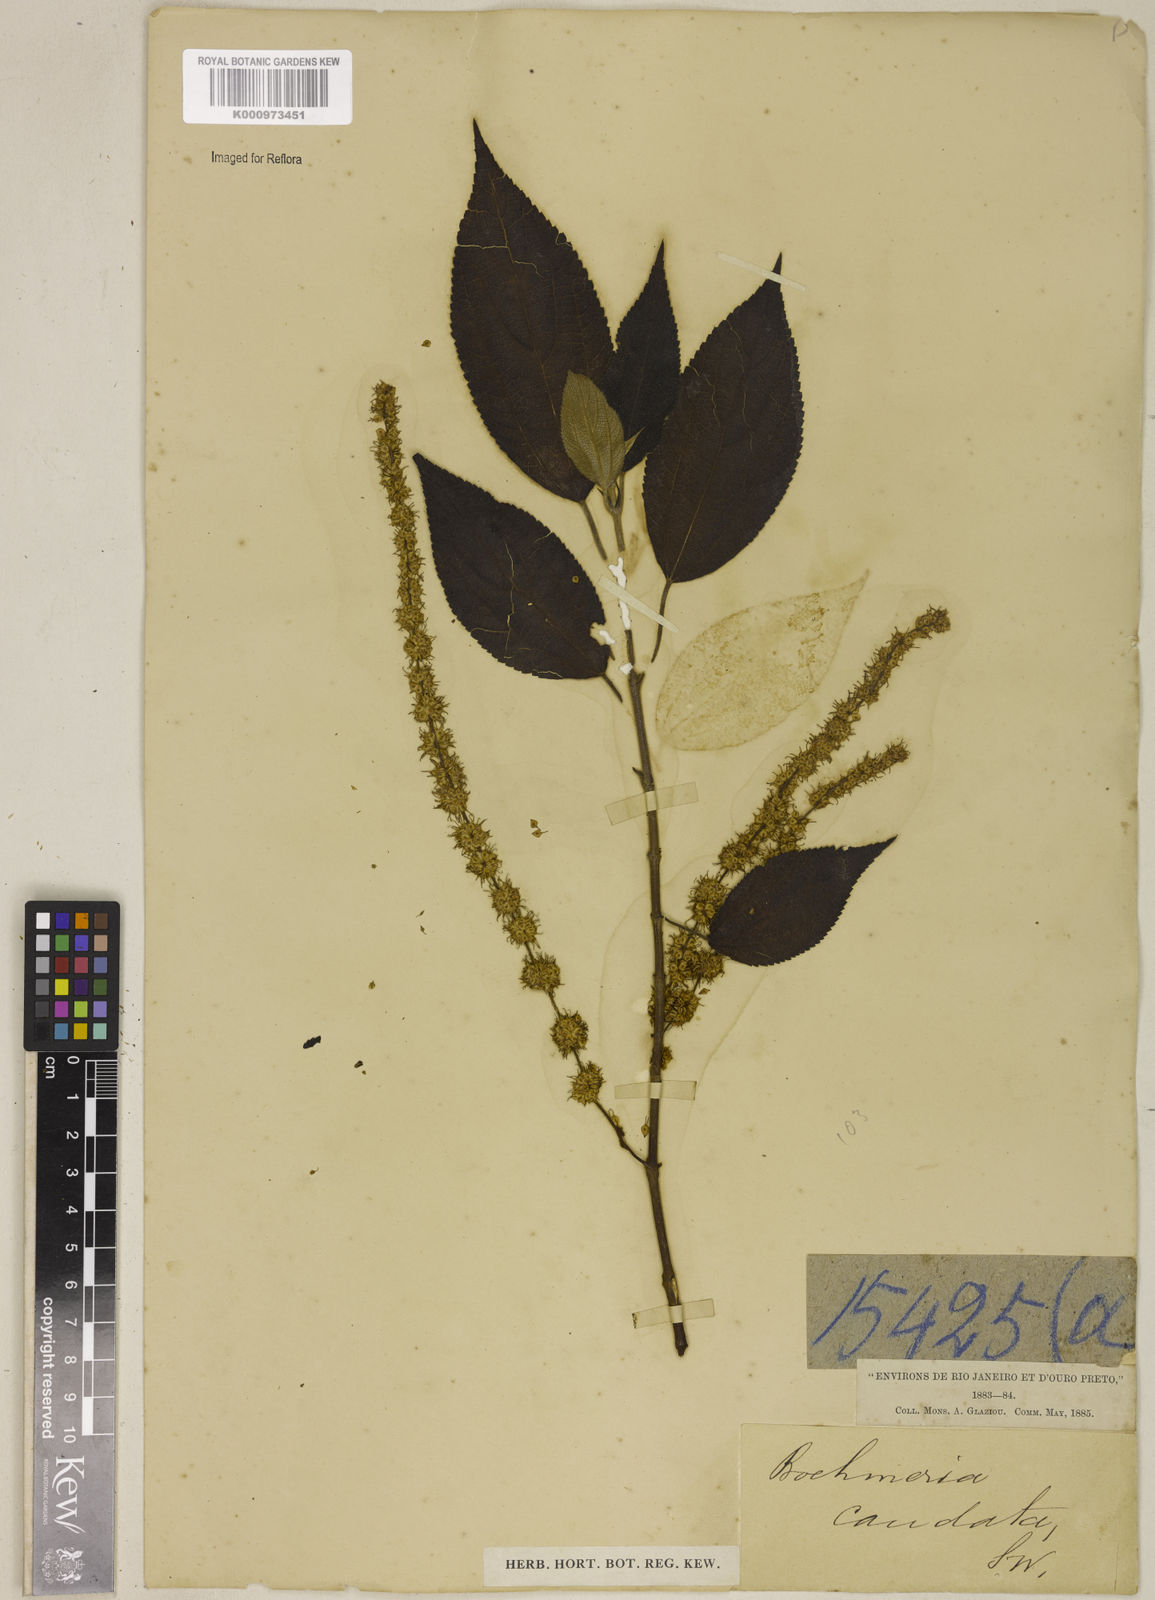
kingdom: Plantae
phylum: Tracheophyta
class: Magnoliopsida
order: Rosales
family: Urticaceae
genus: Boehmeria
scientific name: Boehmeria caudata
